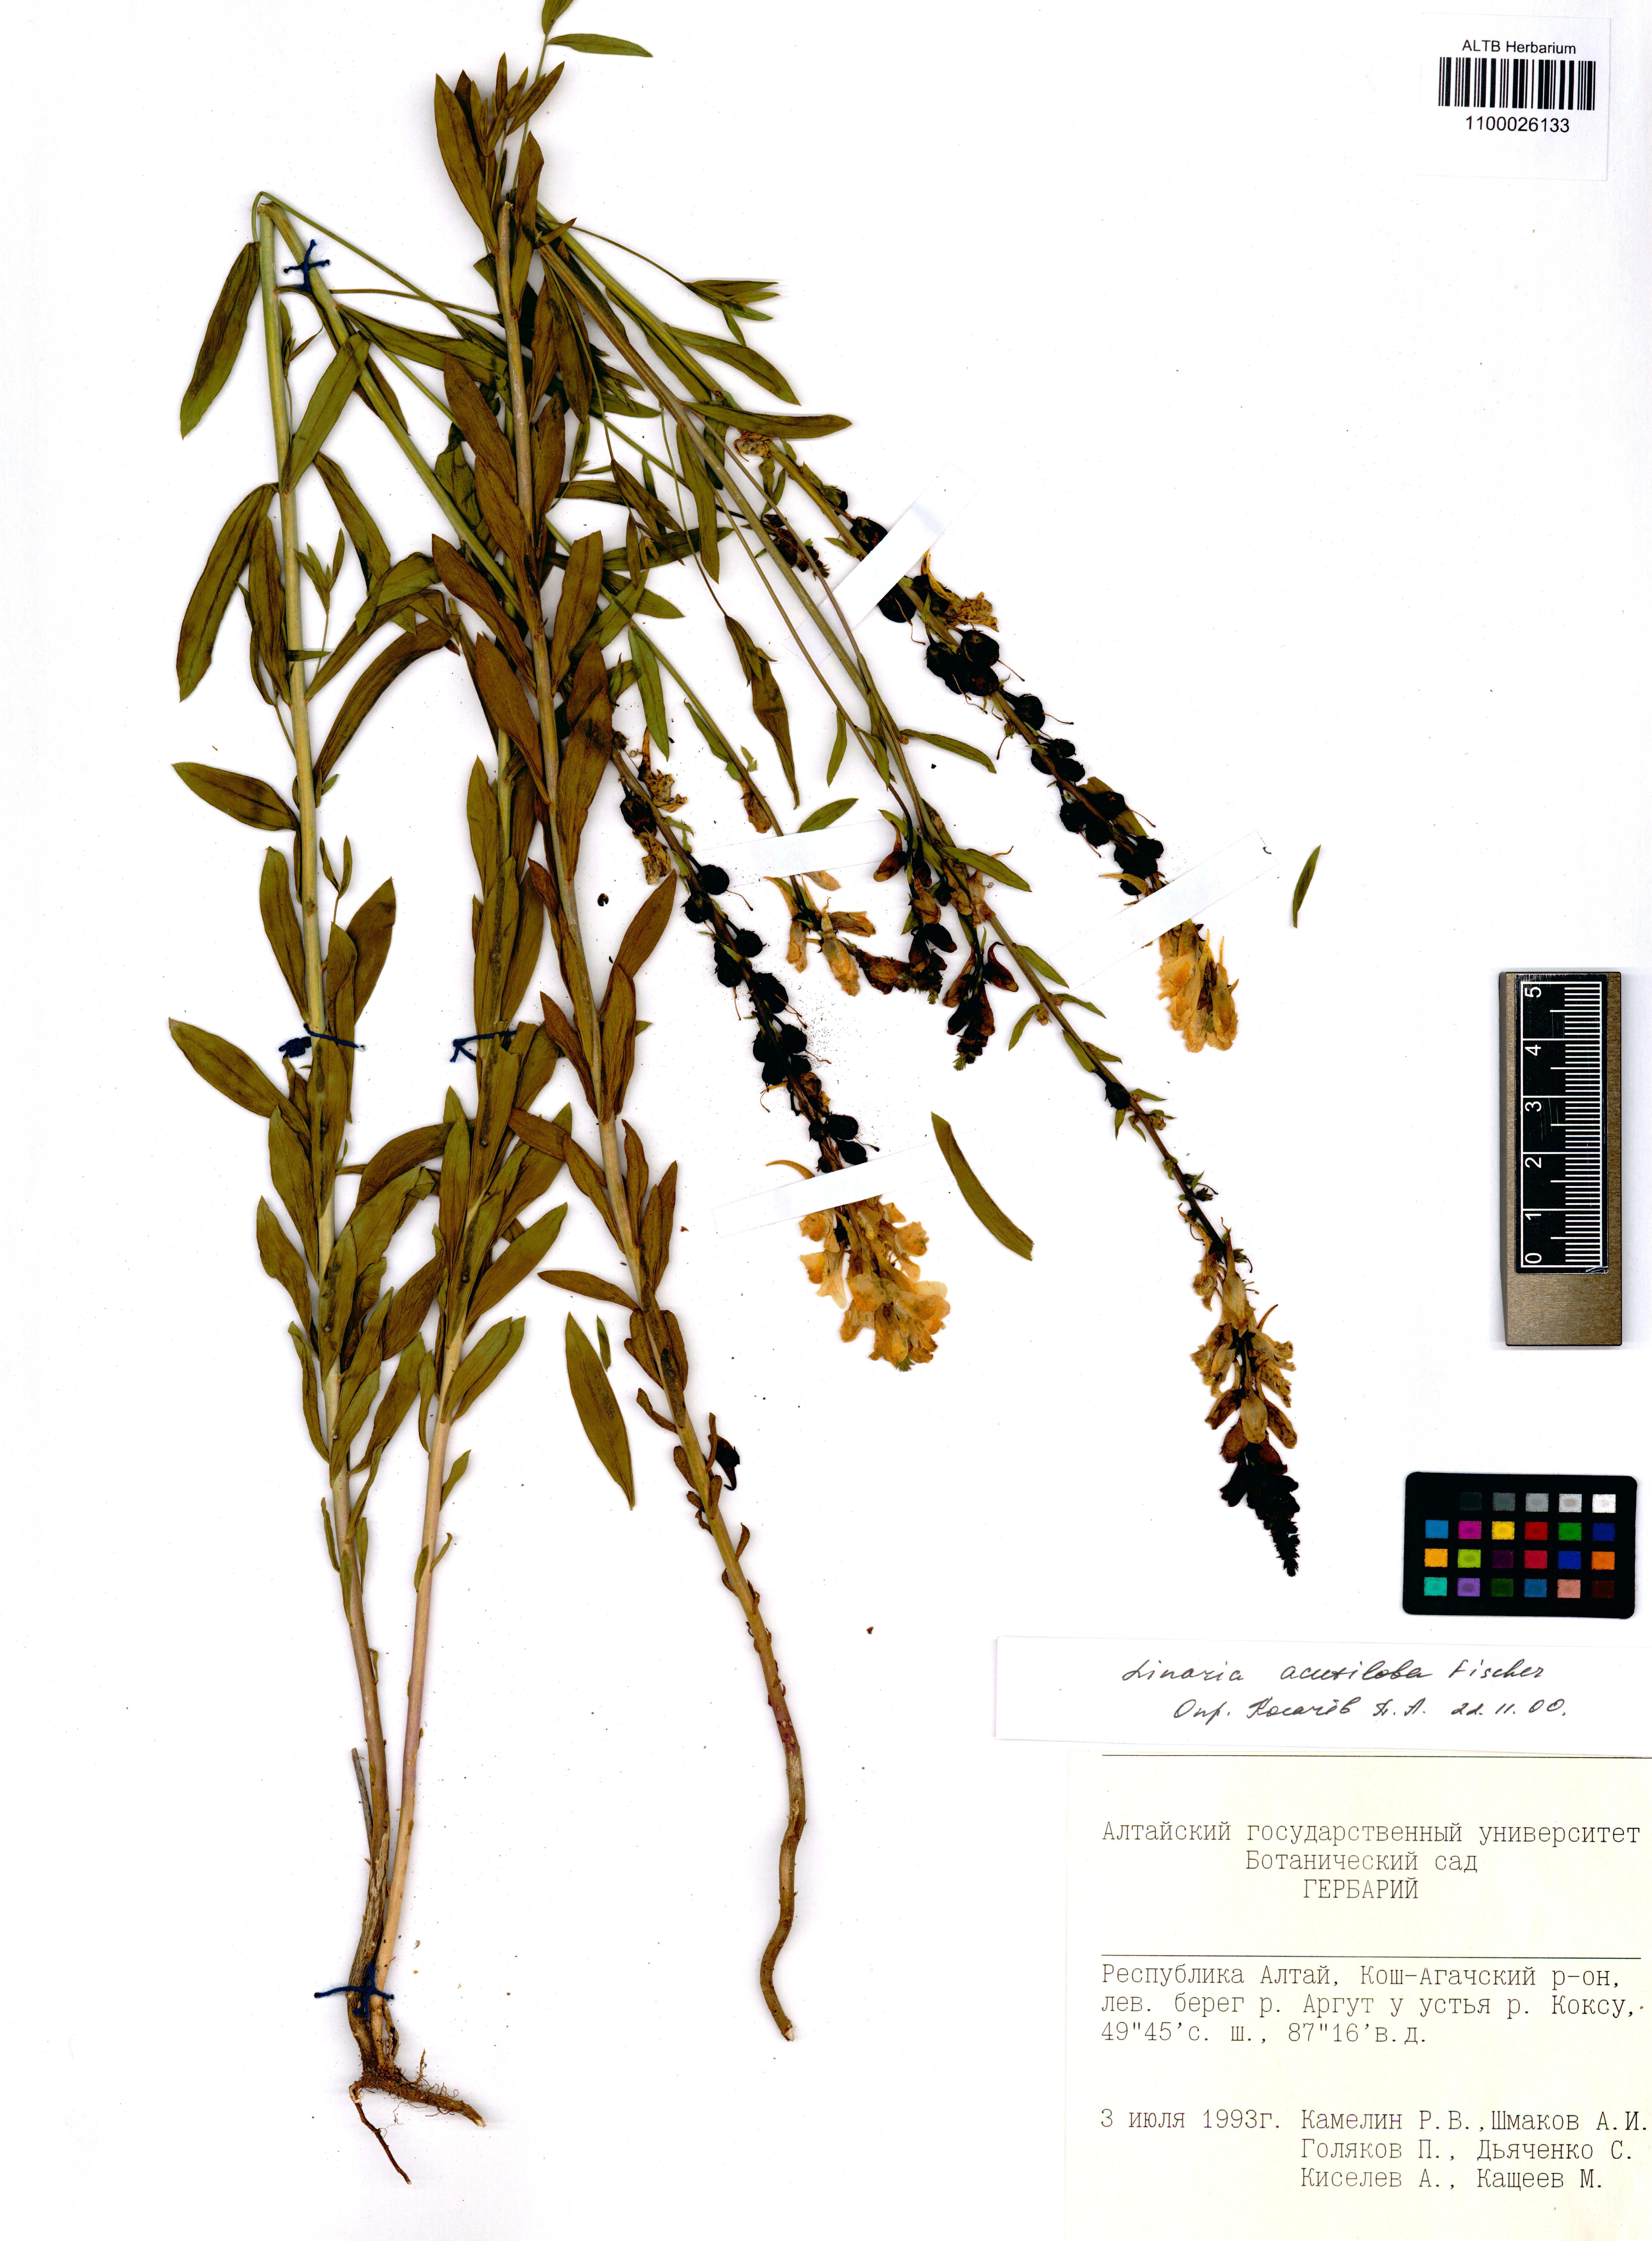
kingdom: Plantae
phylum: Tracheophyta
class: Magnoliopsida
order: Lamiales
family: Plantaginaceae
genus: Linaria
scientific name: Linaria acutiloba
